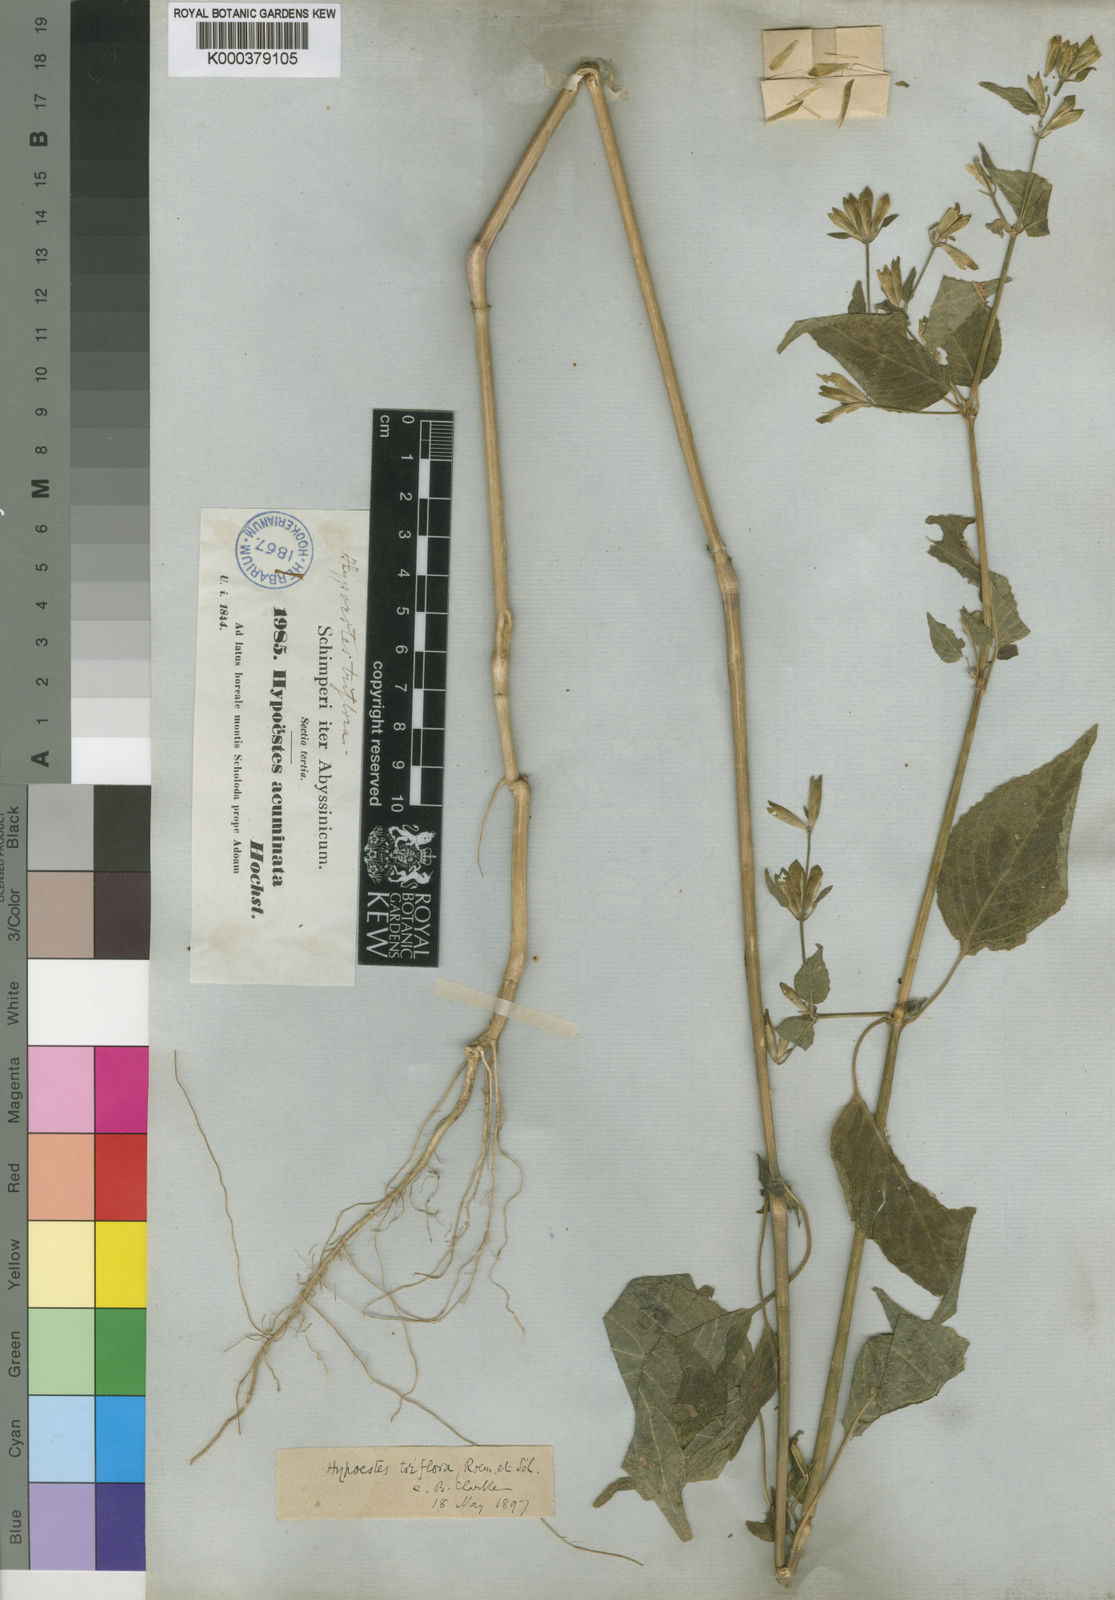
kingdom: Plantae
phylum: Tracheophyta
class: Magnoliopsida
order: Lamiales
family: Acanthaceae
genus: Hypoestes
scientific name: Hypoestes triflora
